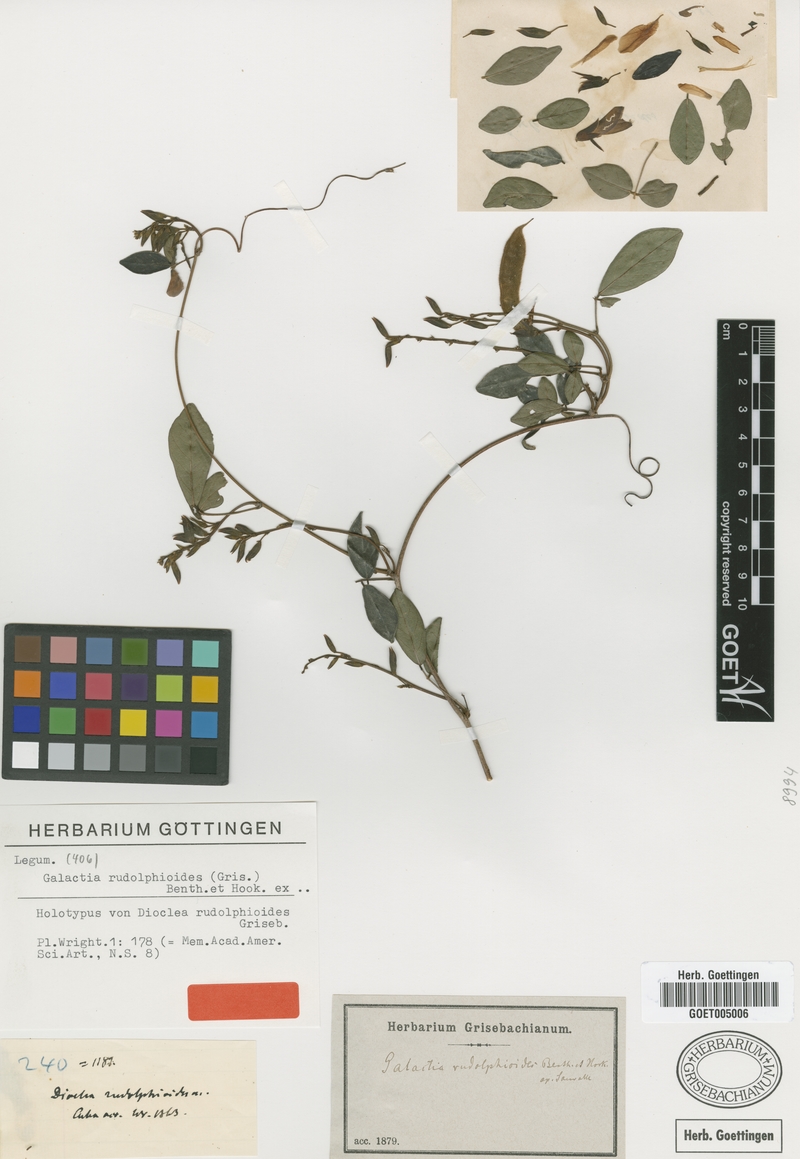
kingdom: Plantae
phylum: Tracheophyta
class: Magnoliopsida
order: Fabales
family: Fabaceae
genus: Rhodopis
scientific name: Rhodopis rudolphioides
